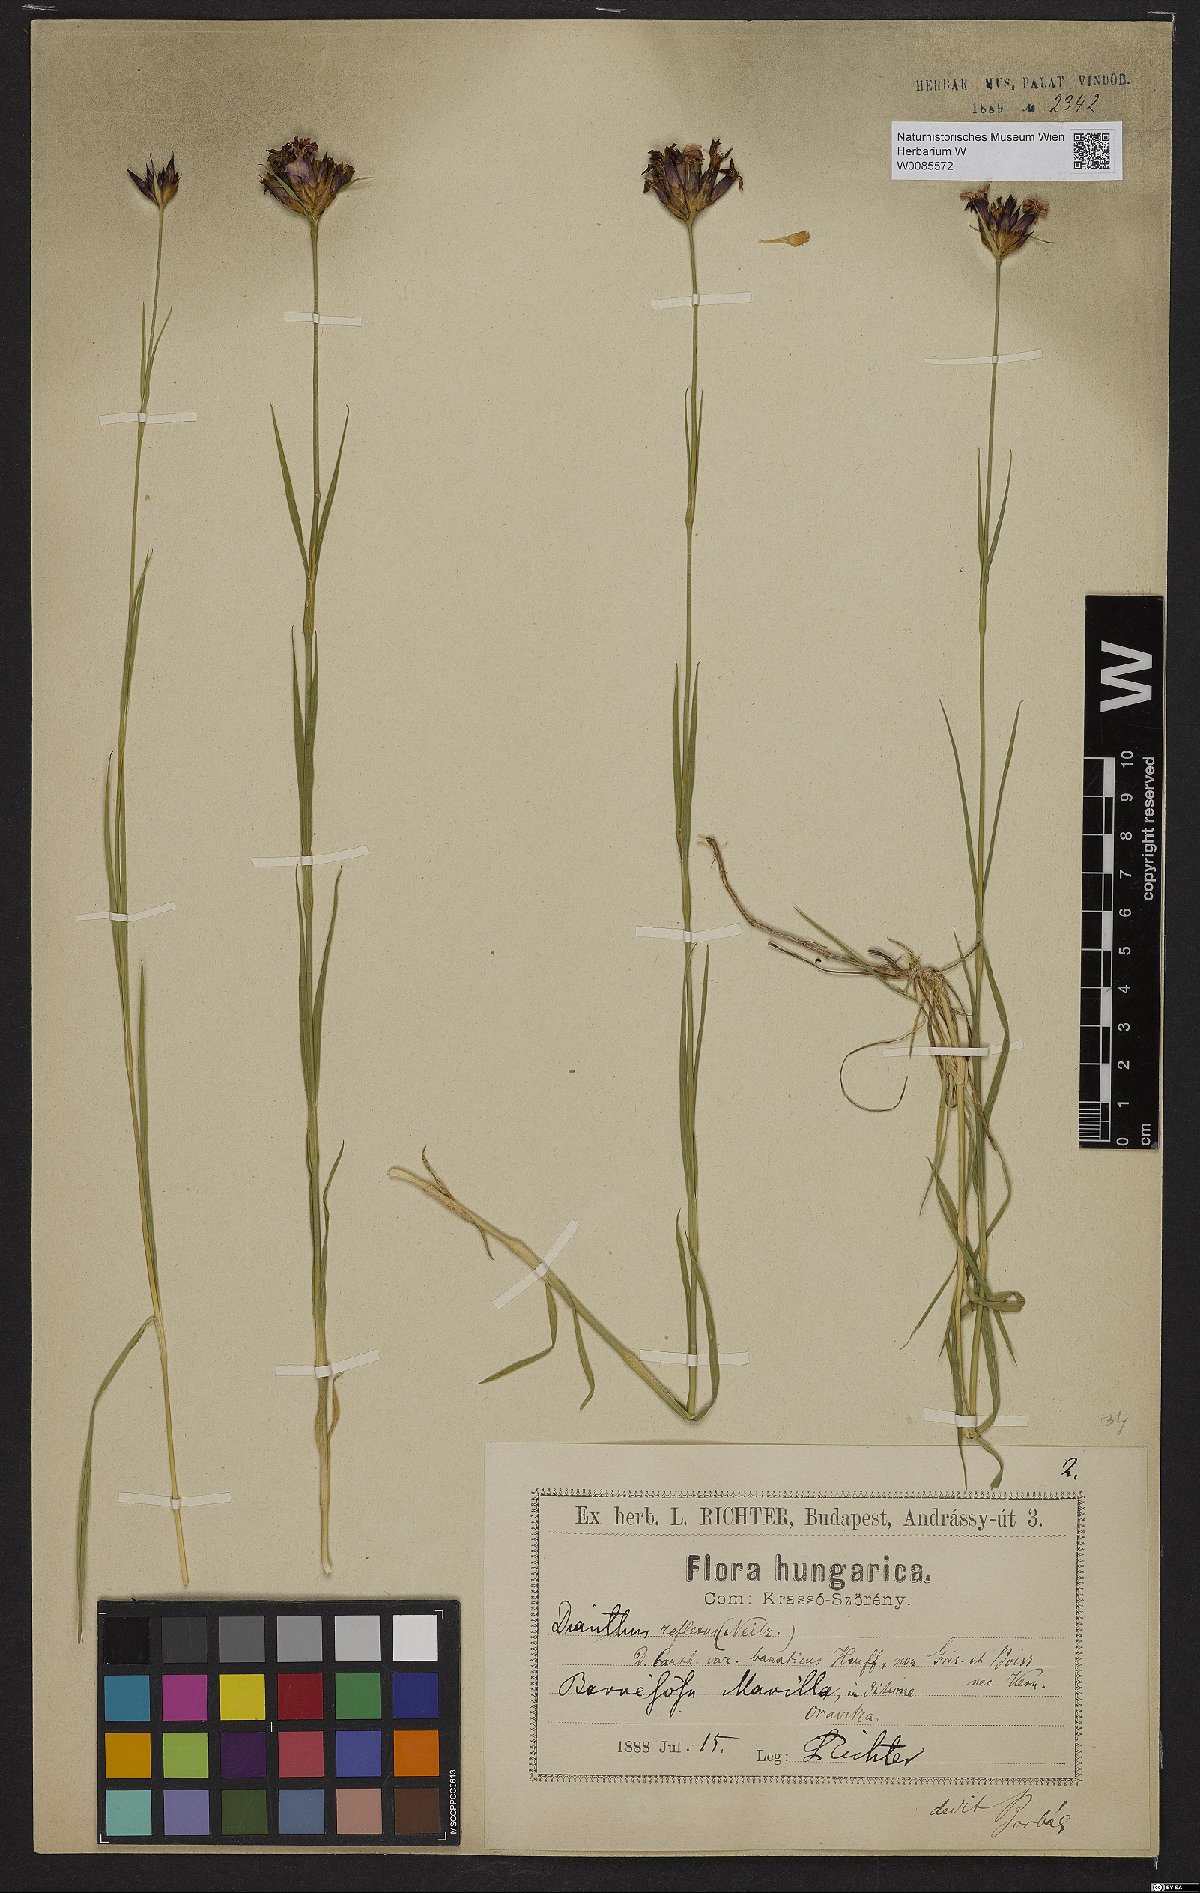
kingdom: Plantae
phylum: Tracheophyta
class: Magnoliopsida
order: Caryophyllales
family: Caryophyllaceae
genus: Dianthus
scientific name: Dianthus
